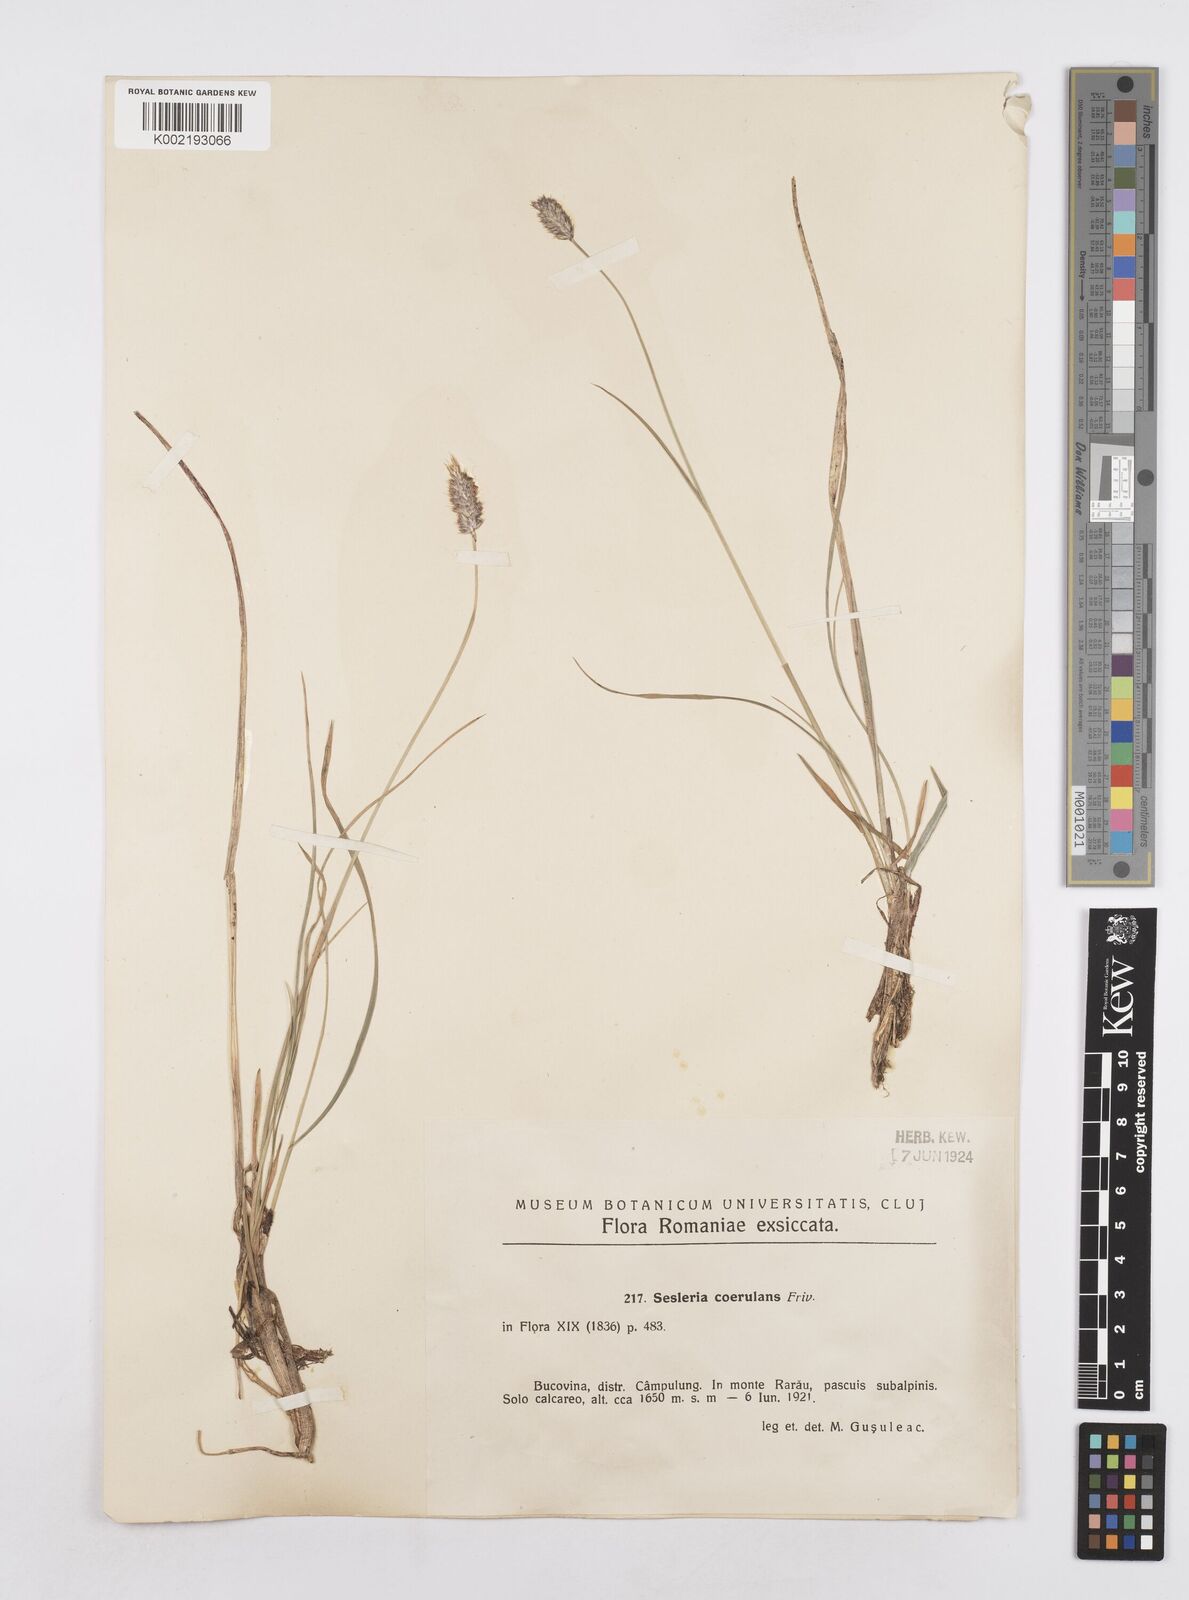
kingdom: Plantae
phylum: Tracheophyta
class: Liliopsida
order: Poales
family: Poaceae
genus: Sesleria
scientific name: Sesleria caerulea
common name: Blue moor-grass
